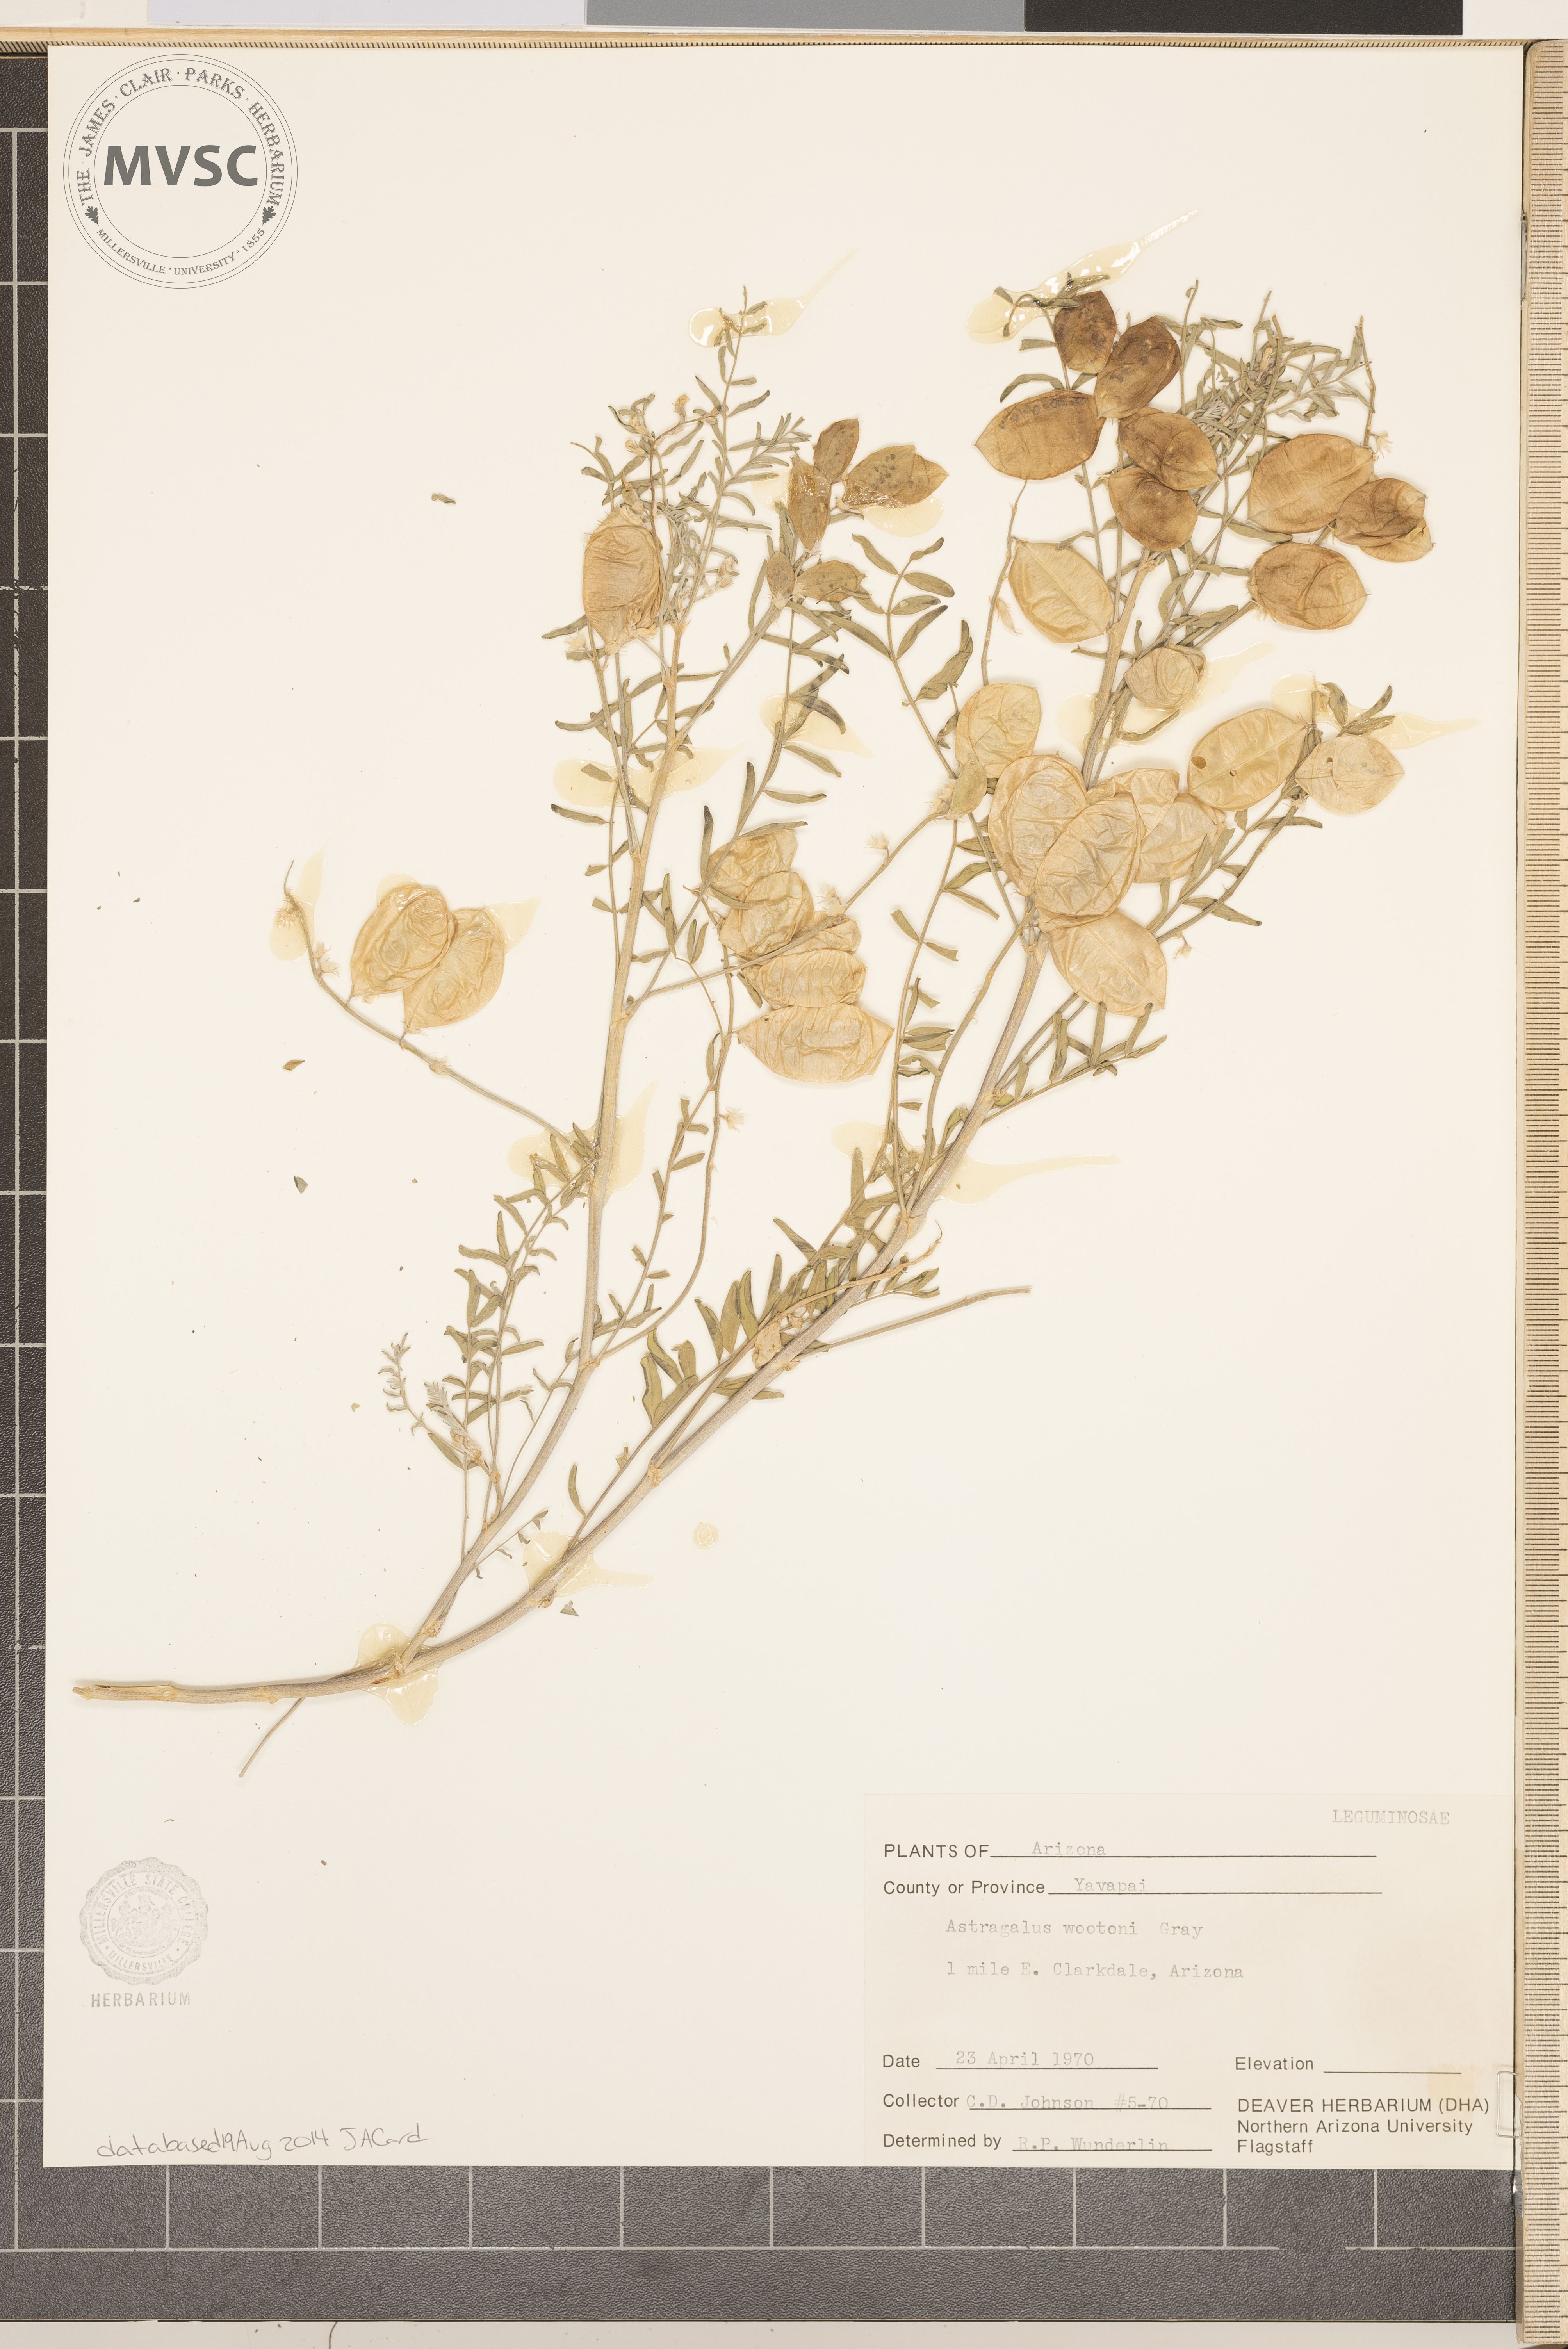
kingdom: Plantae
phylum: Tracheophyta
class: Magnoliopsida
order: Fabales
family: Fabaceae
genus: Astragalus
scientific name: Astragalus wootonii
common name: Wooton's milk-vetch
